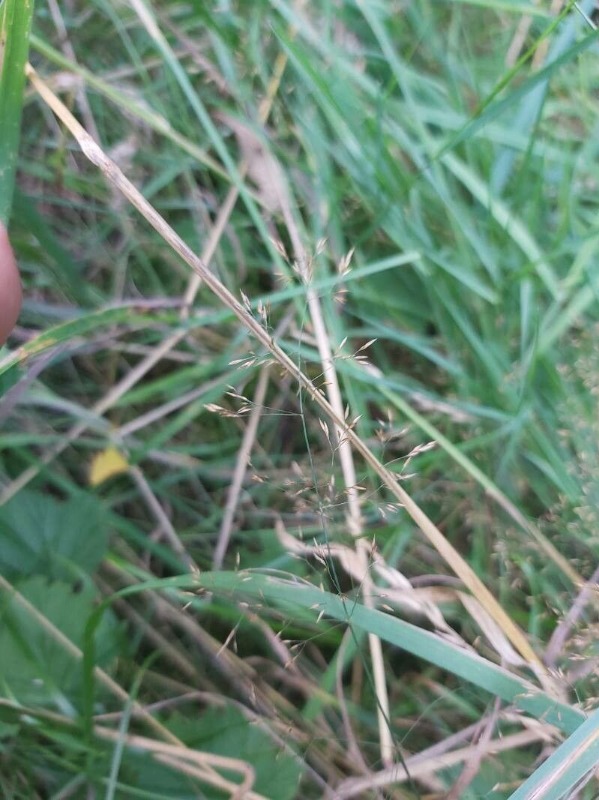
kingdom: Plantae
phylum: Tracheophyta
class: Liliopsida
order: Poales
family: Poaceae
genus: Agrostis
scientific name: Agrostis capillaris
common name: Almindelig hvene
